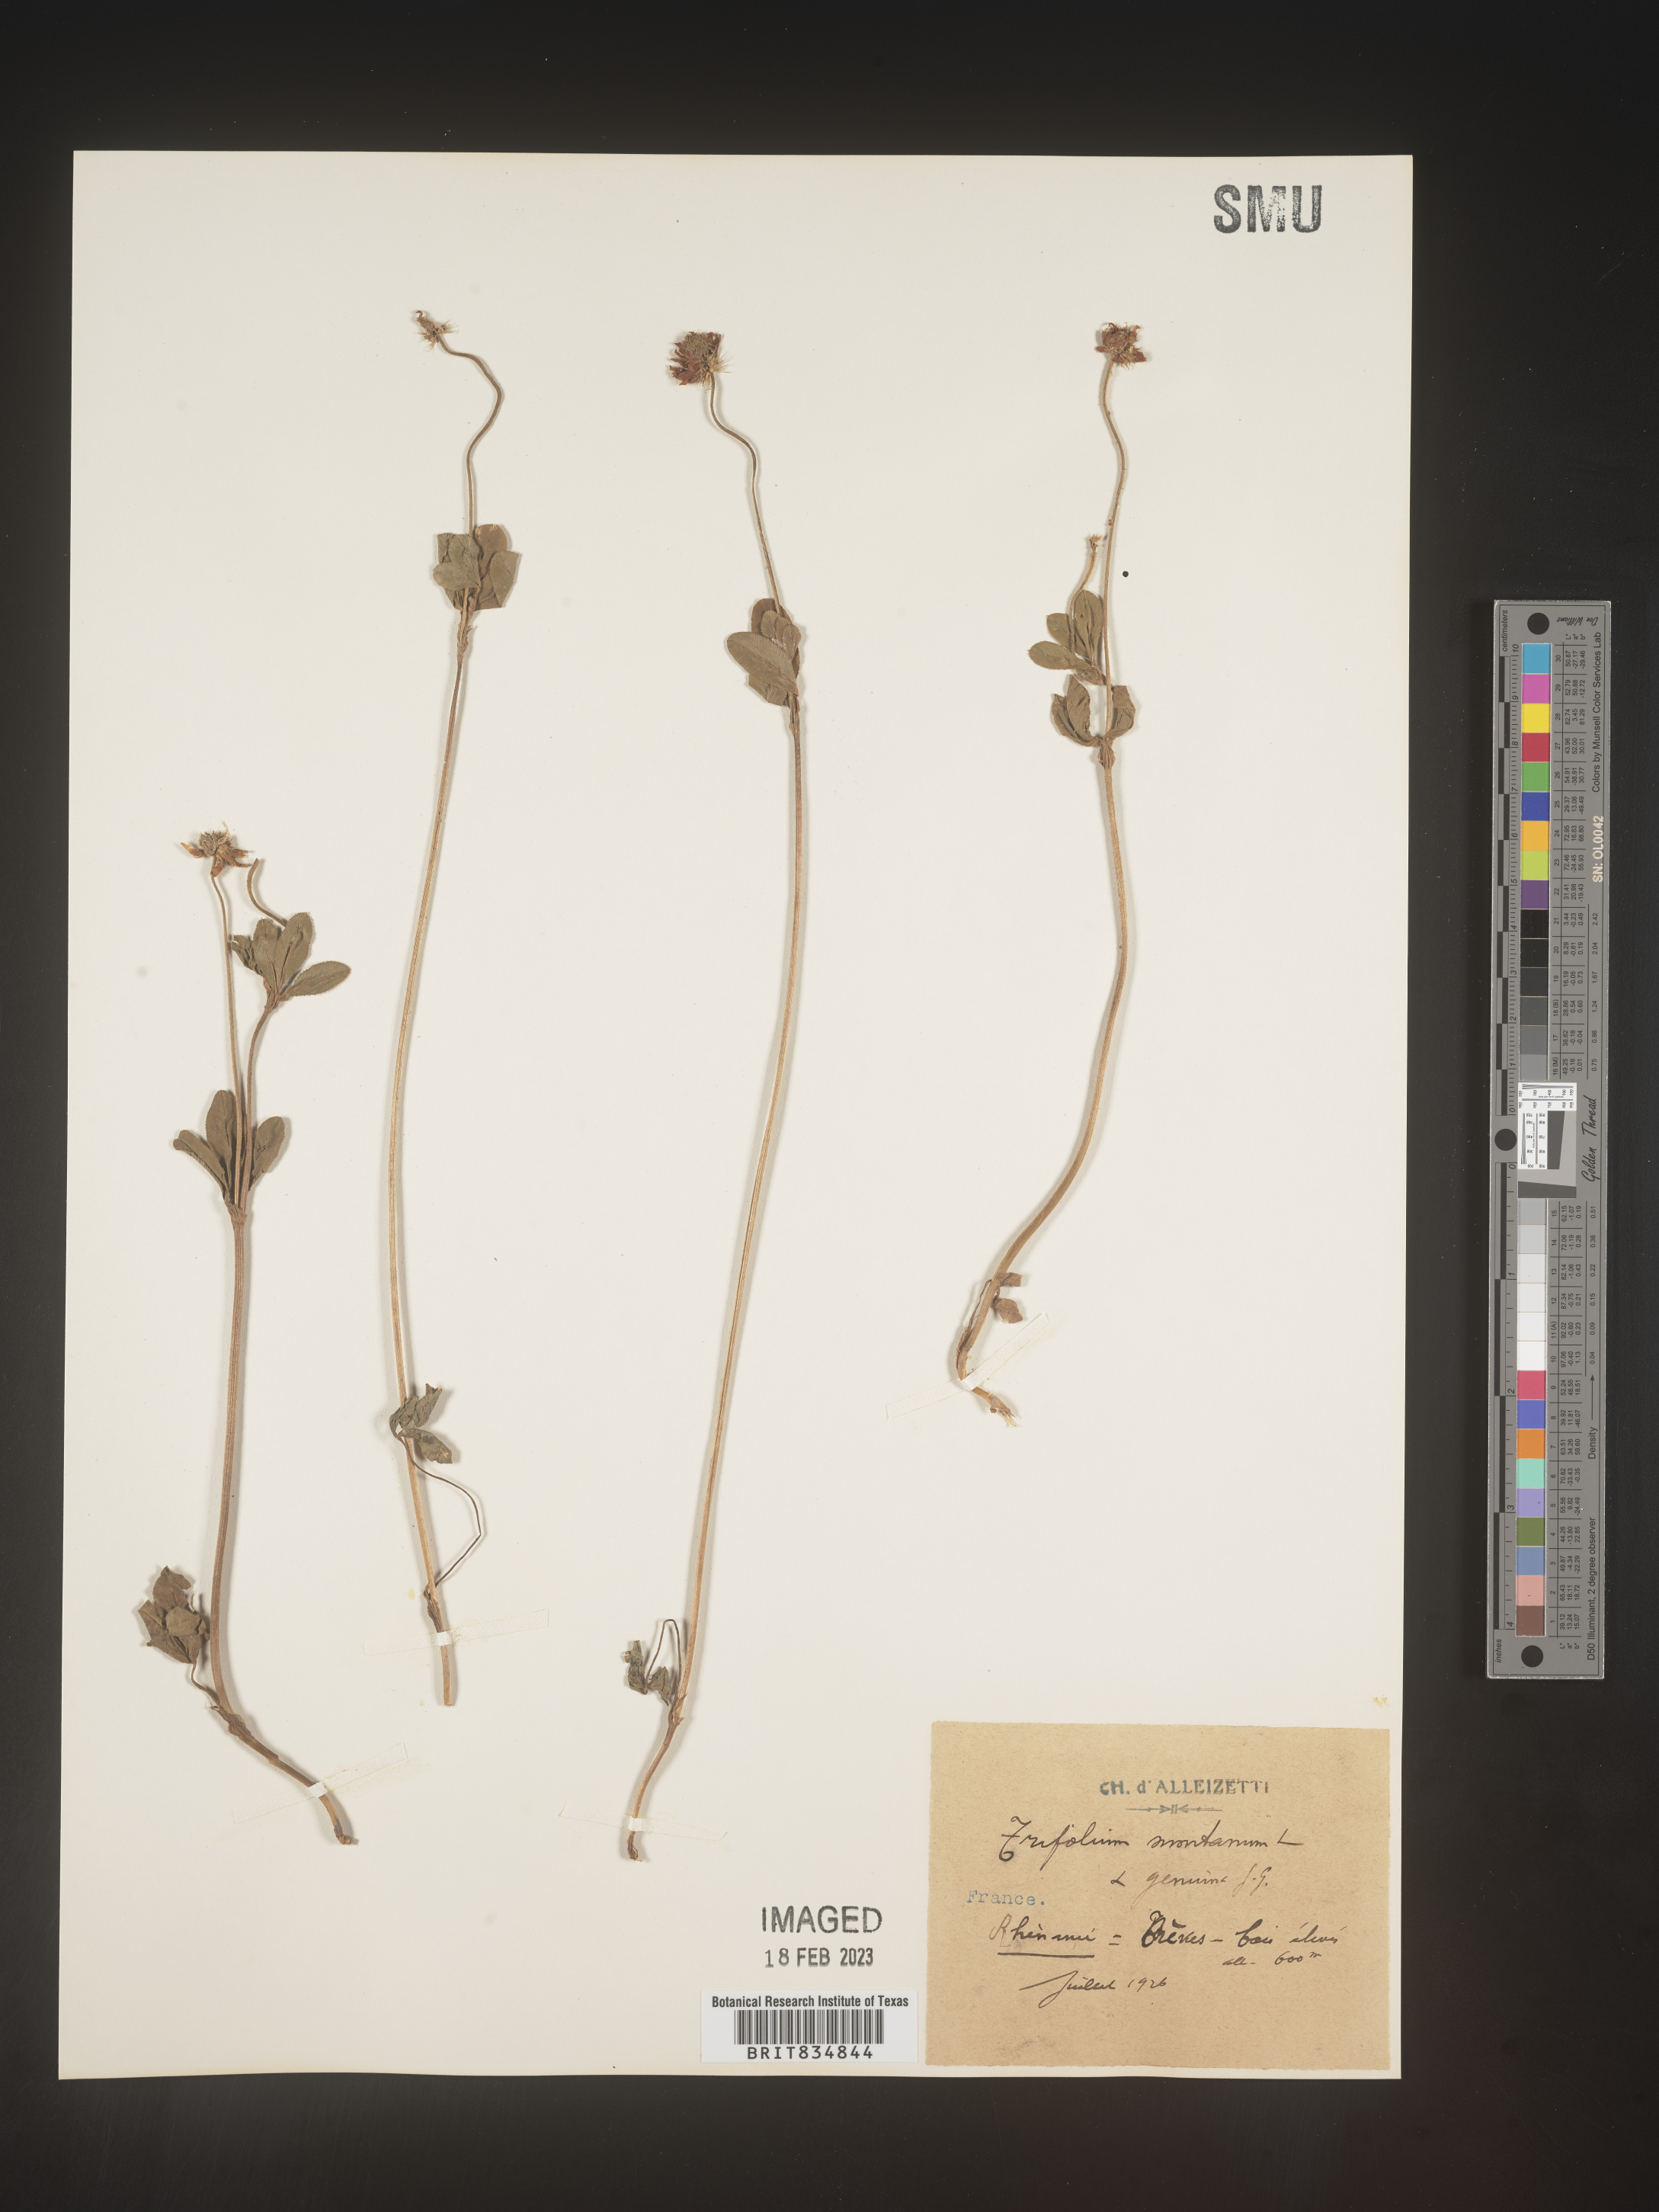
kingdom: Plantae
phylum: Tracheophyta
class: Magnoliopsida
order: Fabales
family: Fabaceae
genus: Trifolium
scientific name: Trifolium
